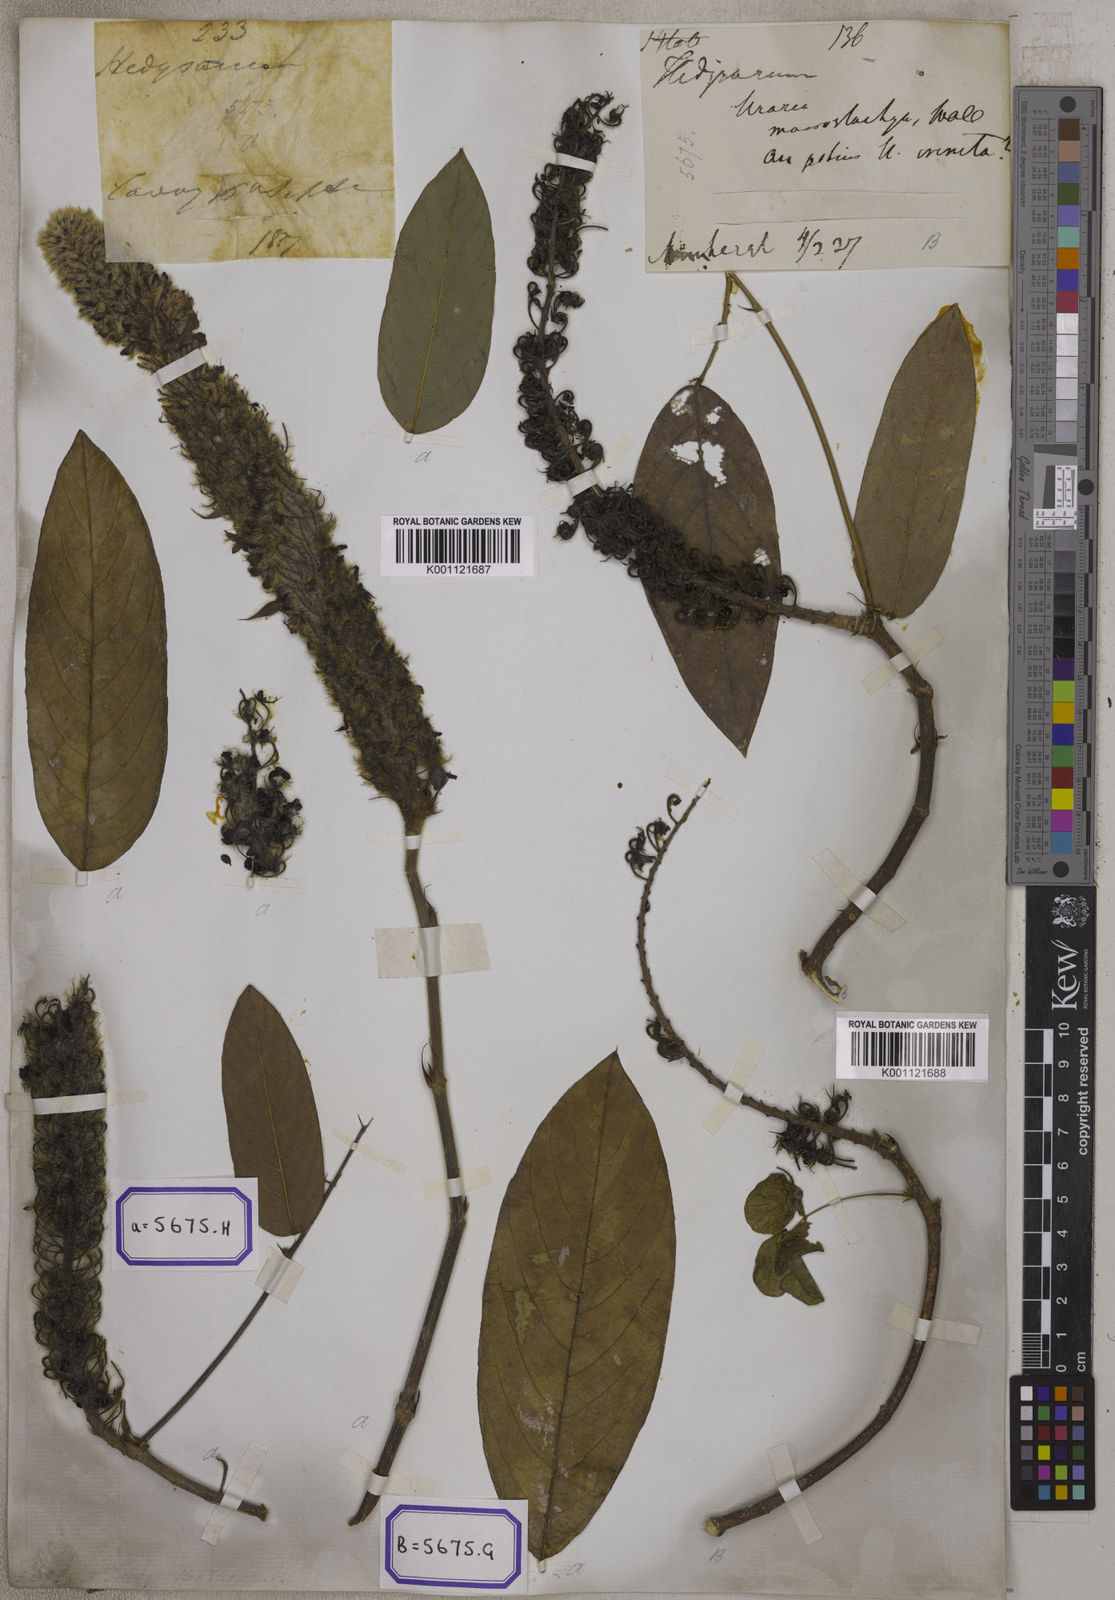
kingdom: Plantae
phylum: Tracheophyta
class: Magnoliopsida
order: Fabales
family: Fabaceae
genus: Uraria
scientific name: Uraria
